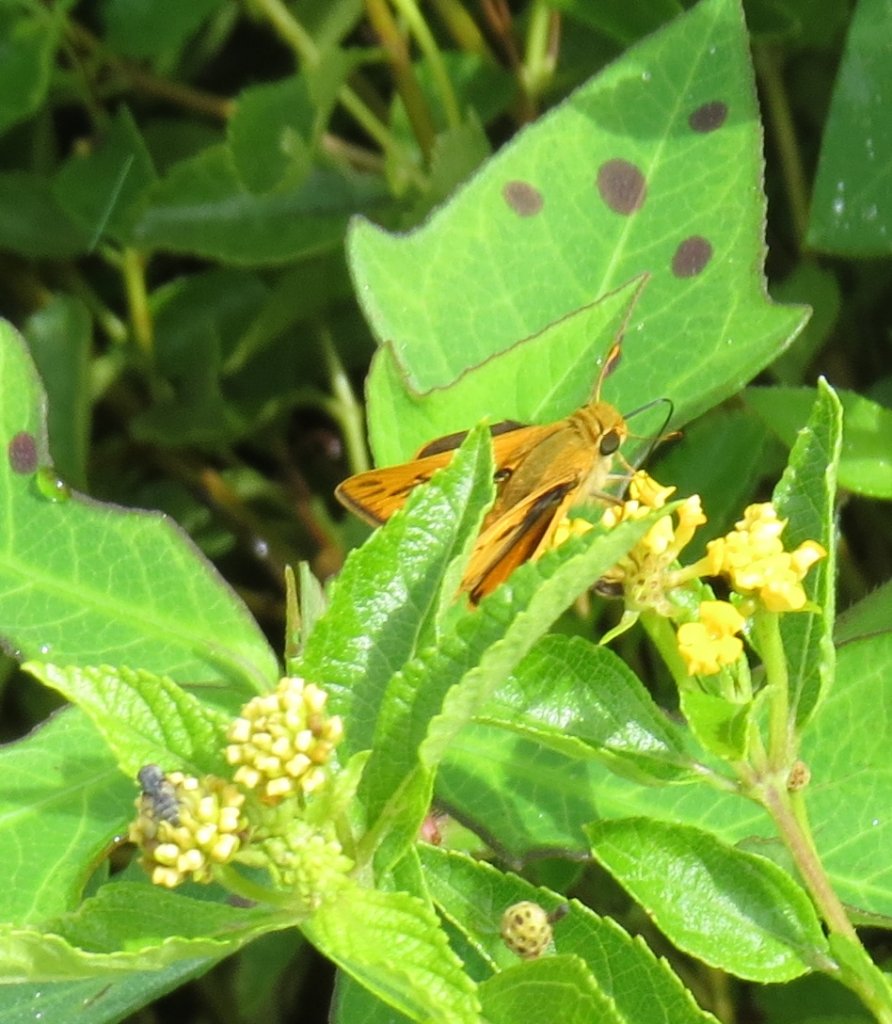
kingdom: Animalia
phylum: Arthropoda
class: Insecta
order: Lepidoptera
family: Hesperiidae
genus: Hylephila
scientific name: Hylephila phyleus
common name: Fiery Skipper
